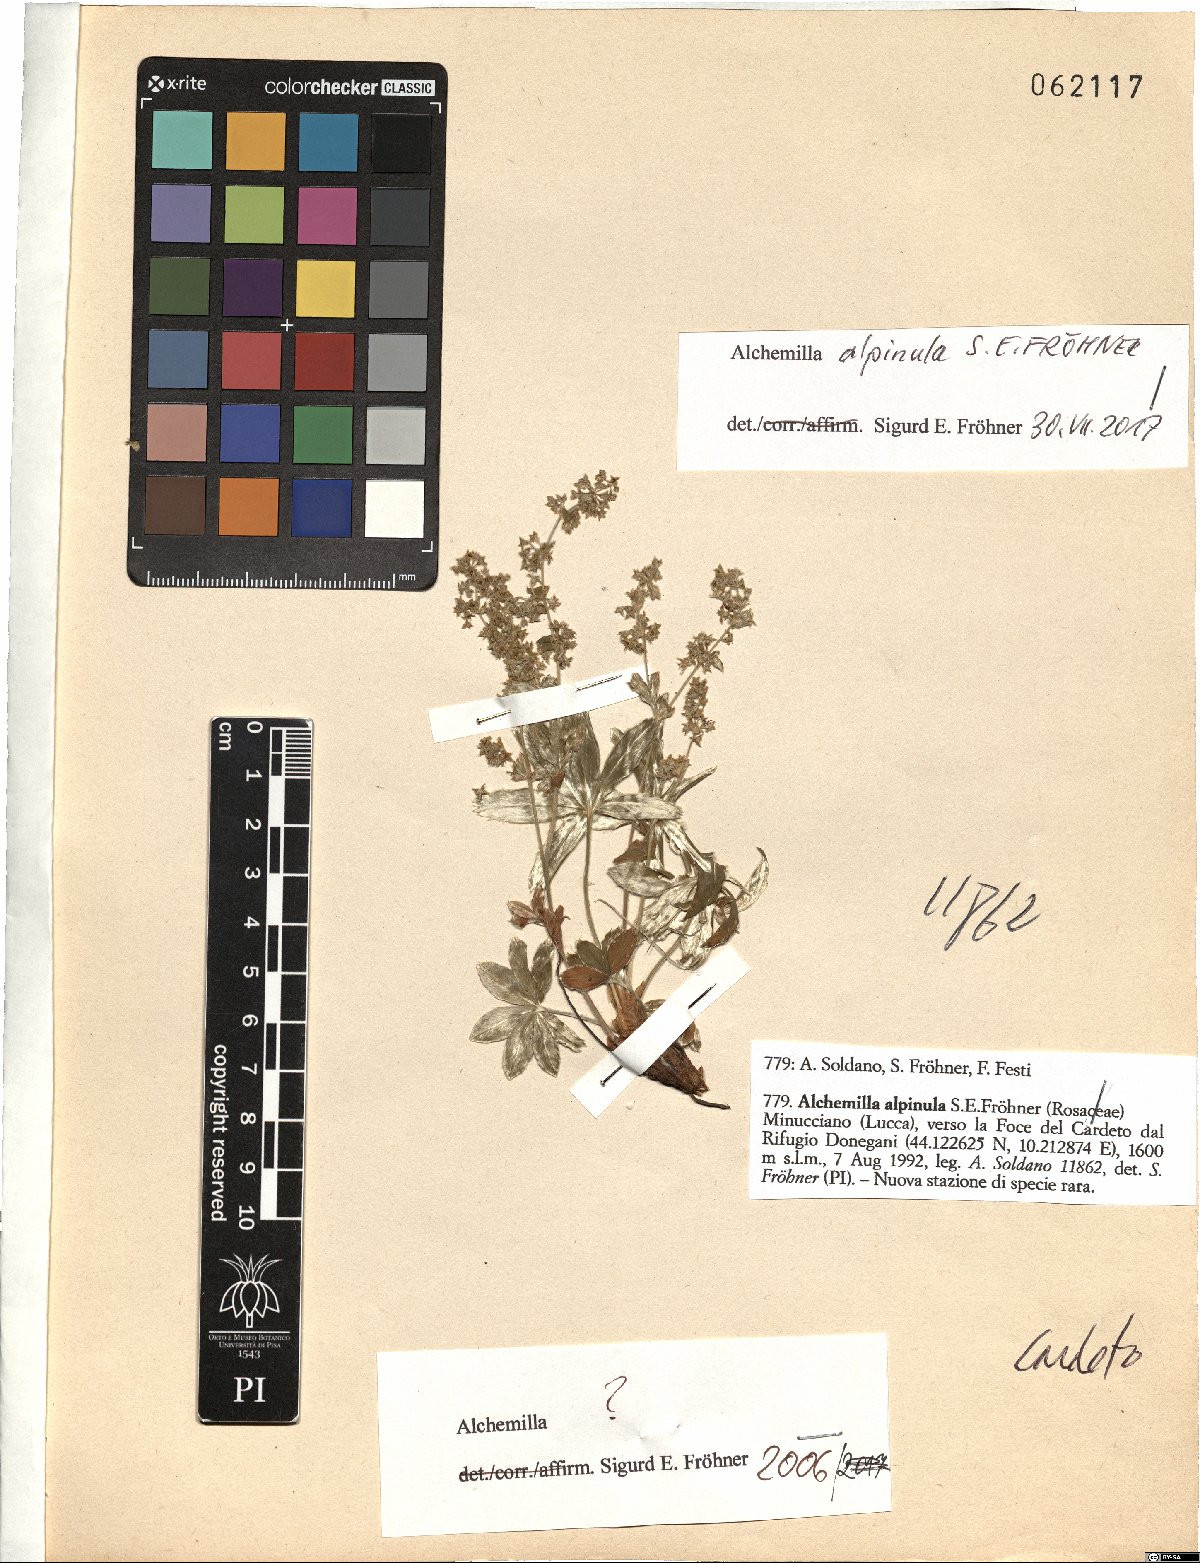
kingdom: Plantae
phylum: Tracheophyta
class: Magnoliopsida
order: Rosales
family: Rosaceae
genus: Alchemilla
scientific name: Alchemilla alpinula
